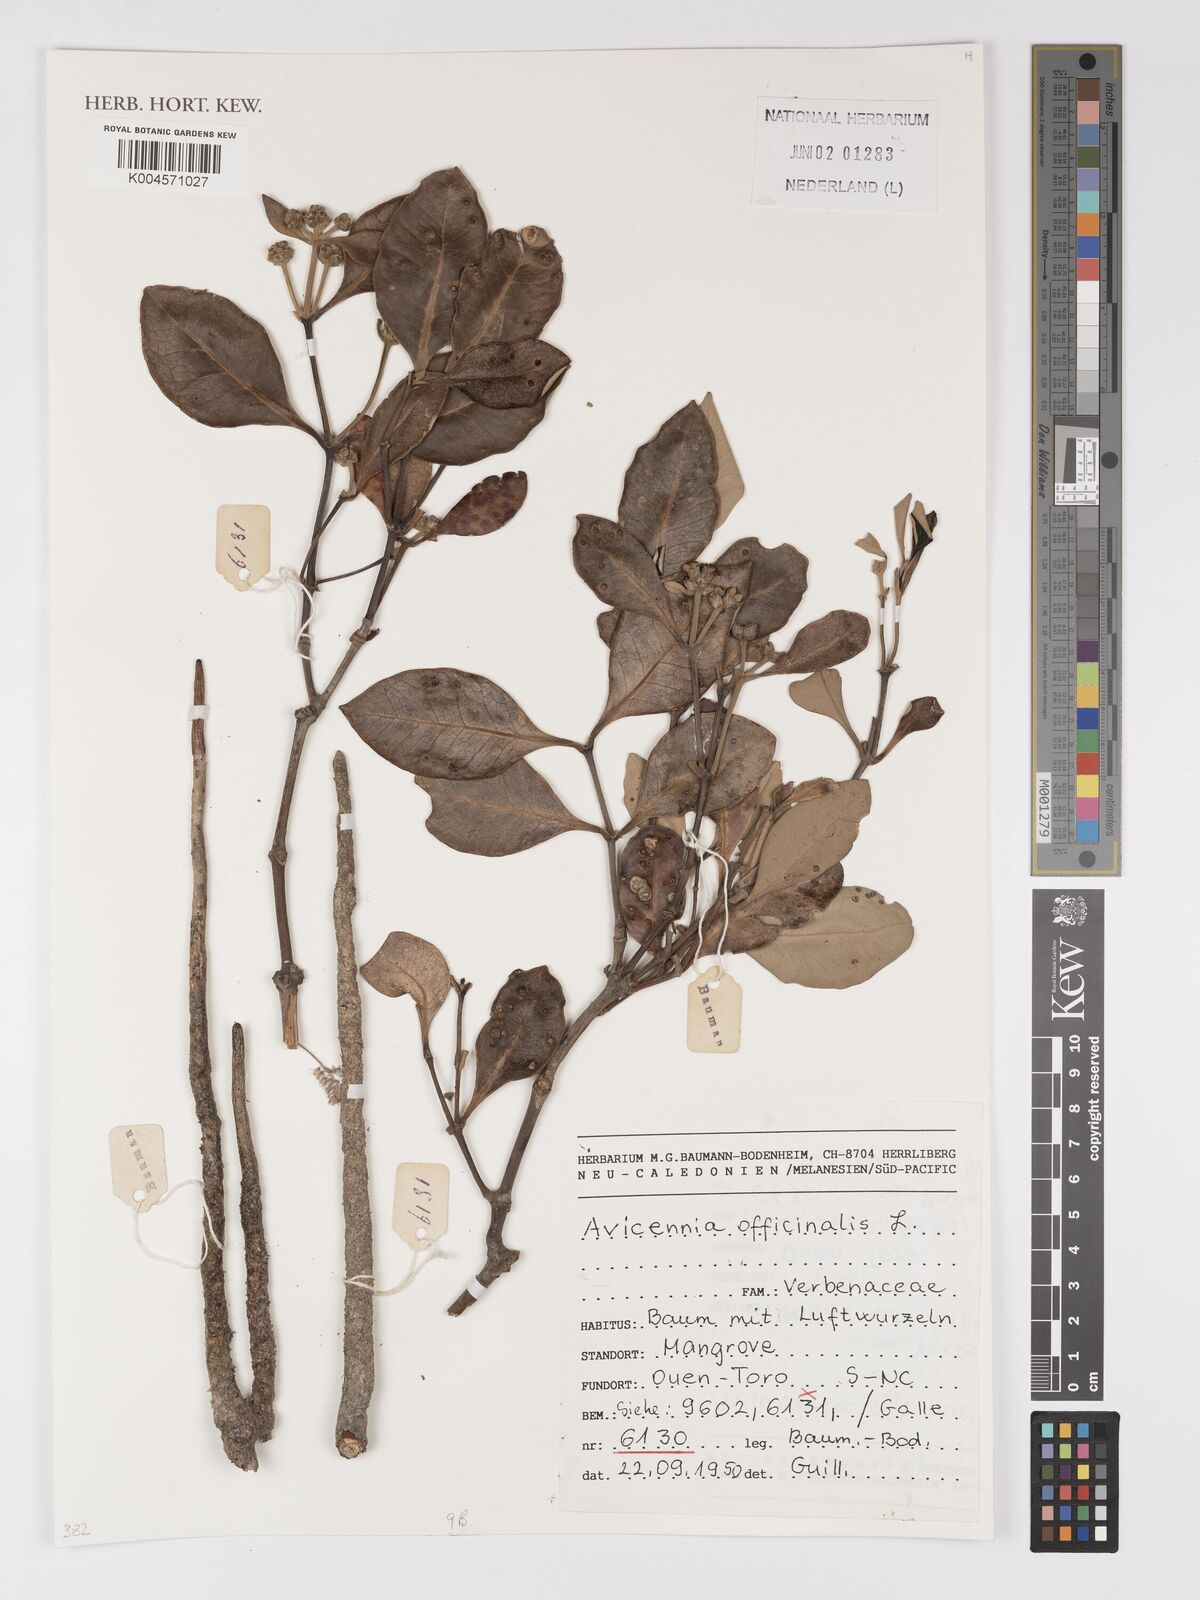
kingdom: Plantae
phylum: Tracheophyta
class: Magnoliopsida
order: Lamiales
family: Acanthaceae
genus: Avicennia
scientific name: Avicennia officinalis
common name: Baen
